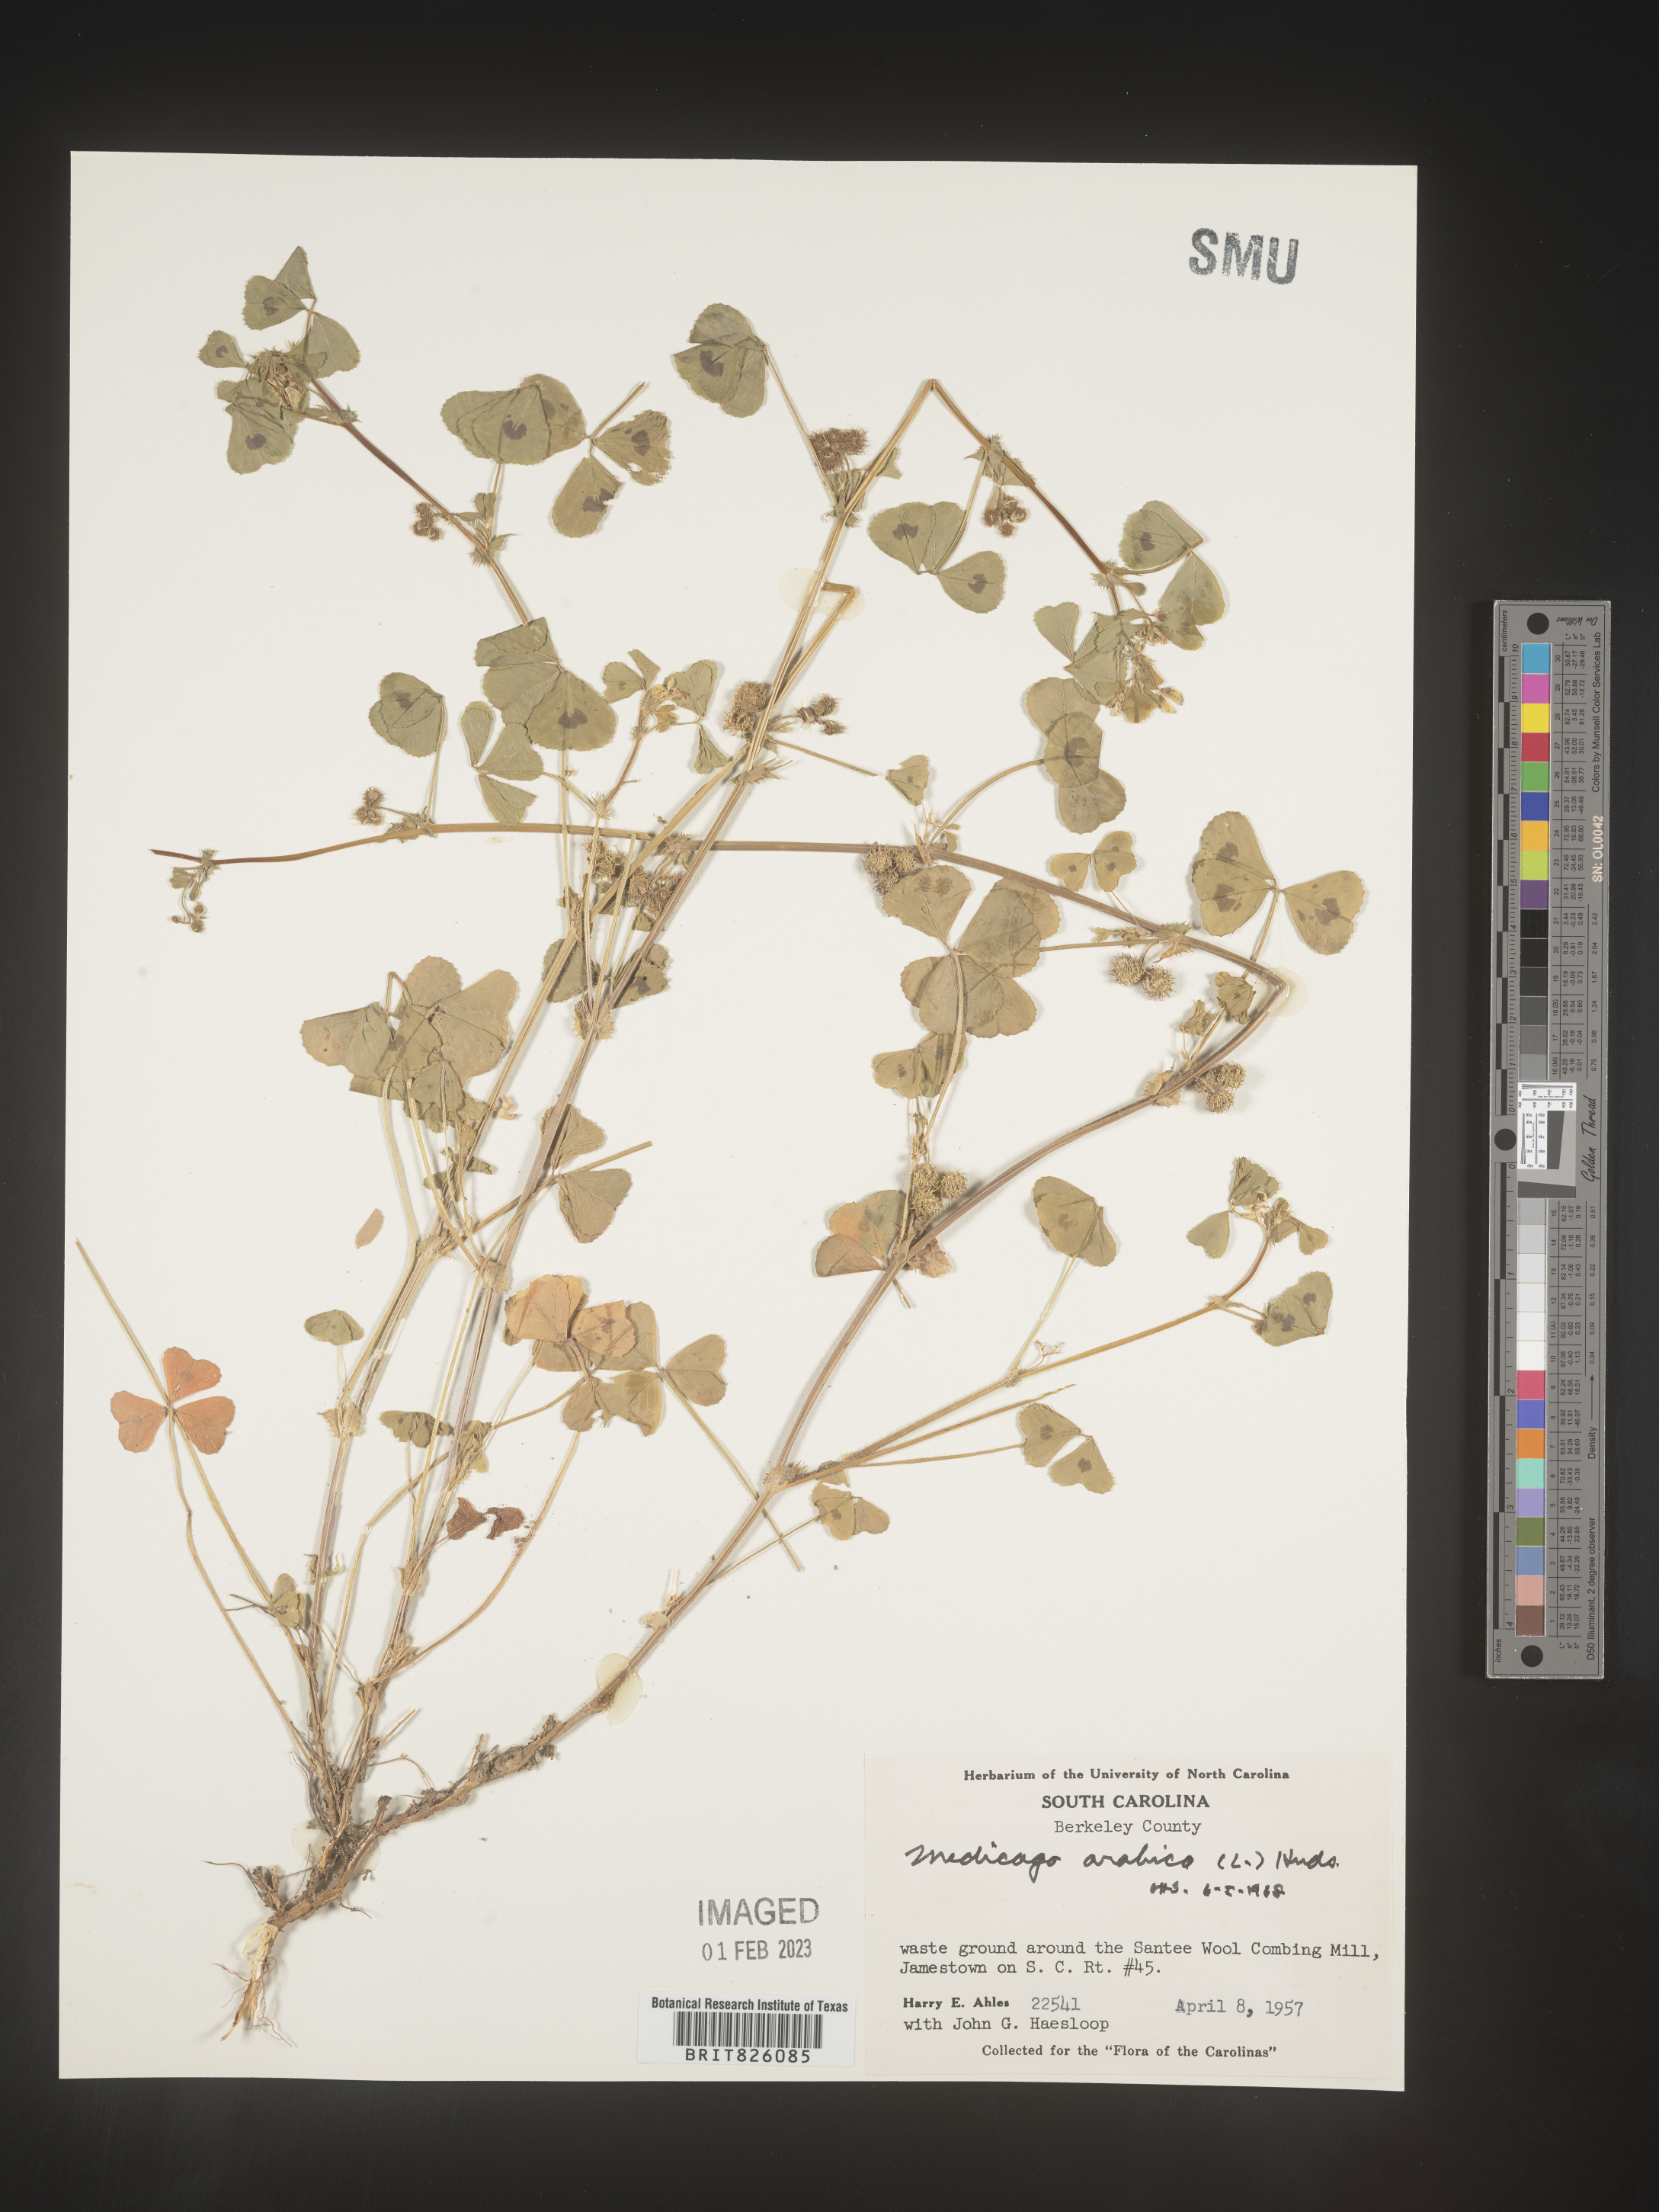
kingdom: Plantae
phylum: Tracheophyta
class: Magnoliopsida
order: Fabales
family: Fabaceae
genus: Medicago
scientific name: Medicago arabica
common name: Spotted medick
